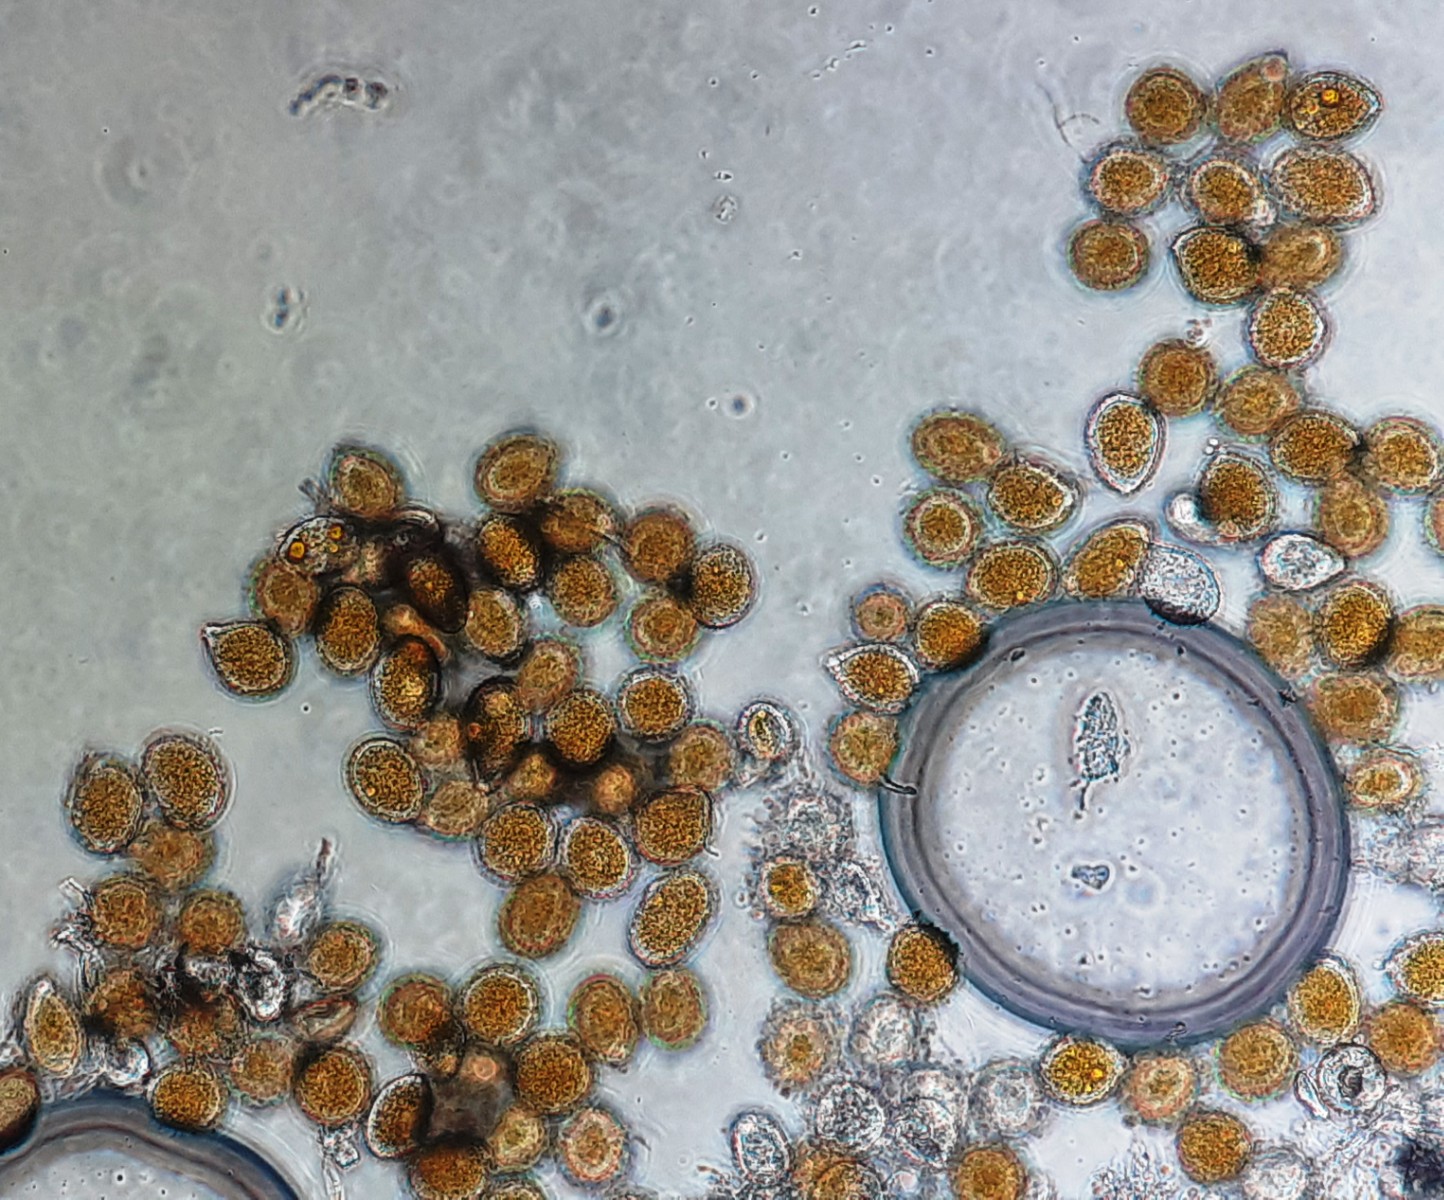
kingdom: Fungi
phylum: Basidiomycota
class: Pucciniomycetes
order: Pucciniales
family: Pucciniaceae
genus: Uromyces
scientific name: Uromyces betae
